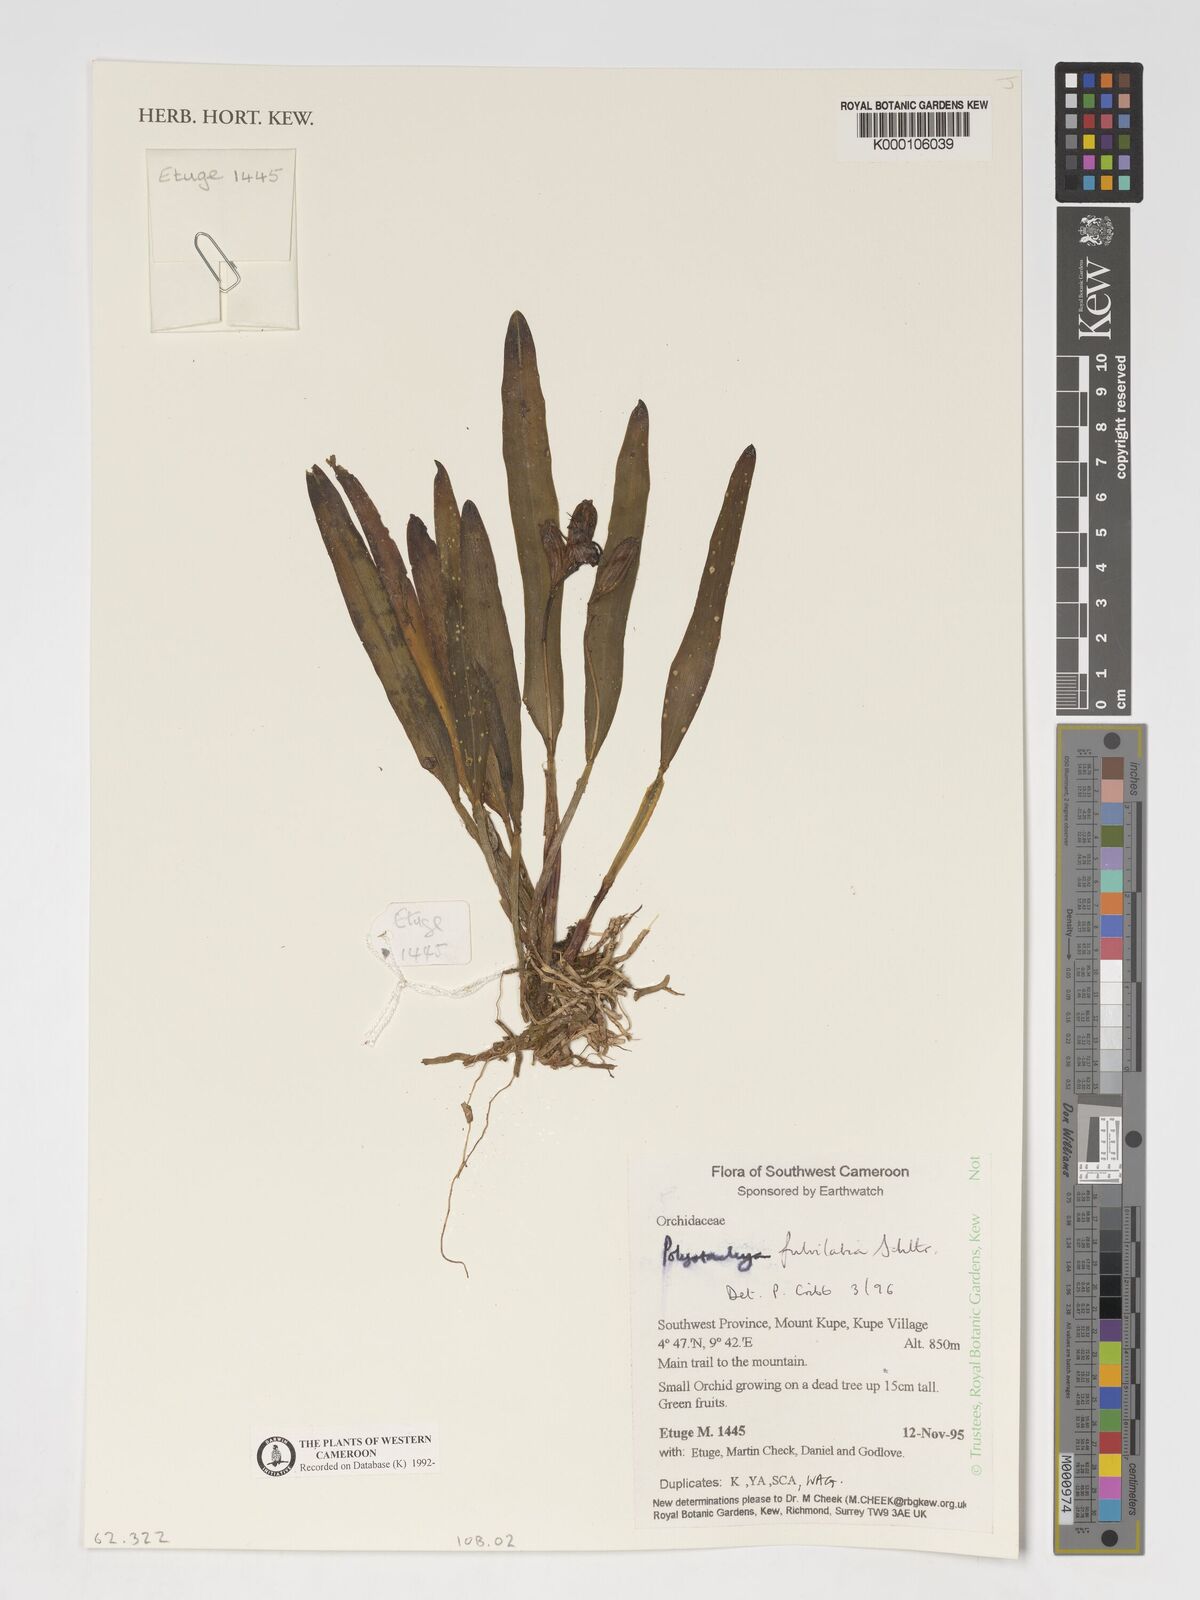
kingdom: Plantae
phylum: Tracheophyta
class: Liliopsida
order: Asparagales
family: Orchidaceae
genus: Polystachya
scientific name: Polystachya fulvilabia
